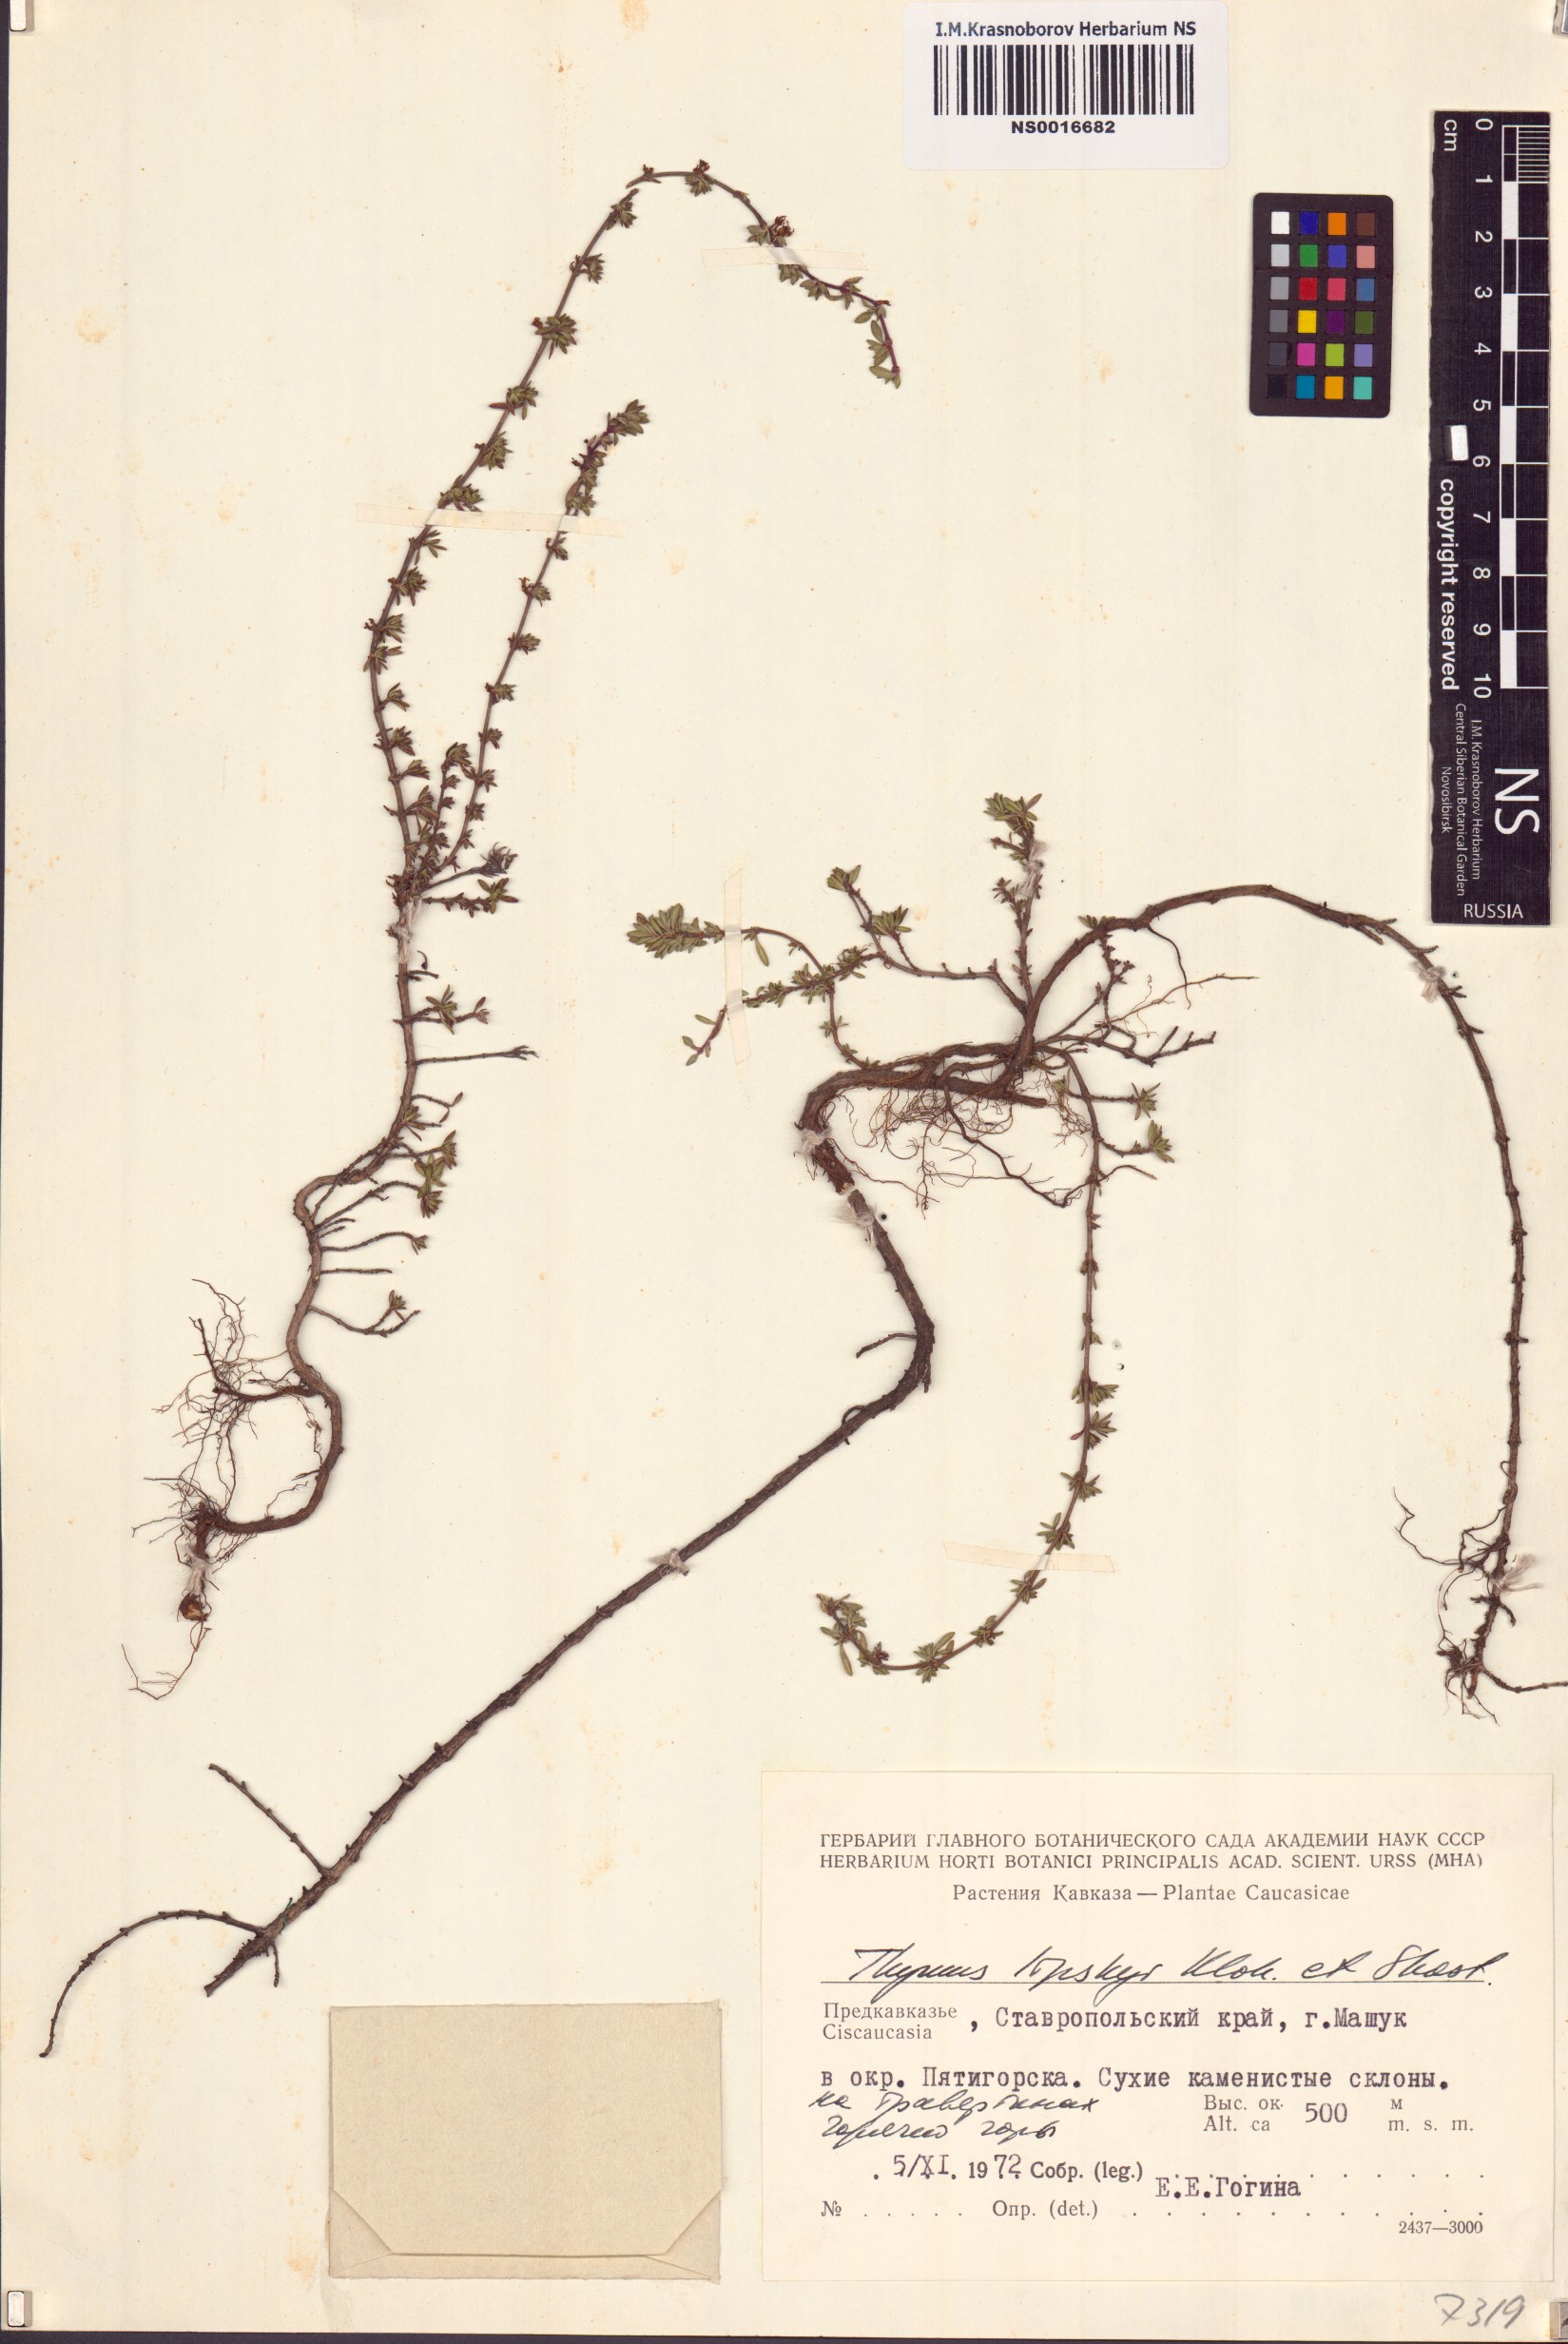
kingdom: Plantae
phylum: Tracheophyta
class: Magnoliopsida
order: Lamiales
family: Lamiaceae
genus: Thymus
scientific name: Thymus daghestanicus
